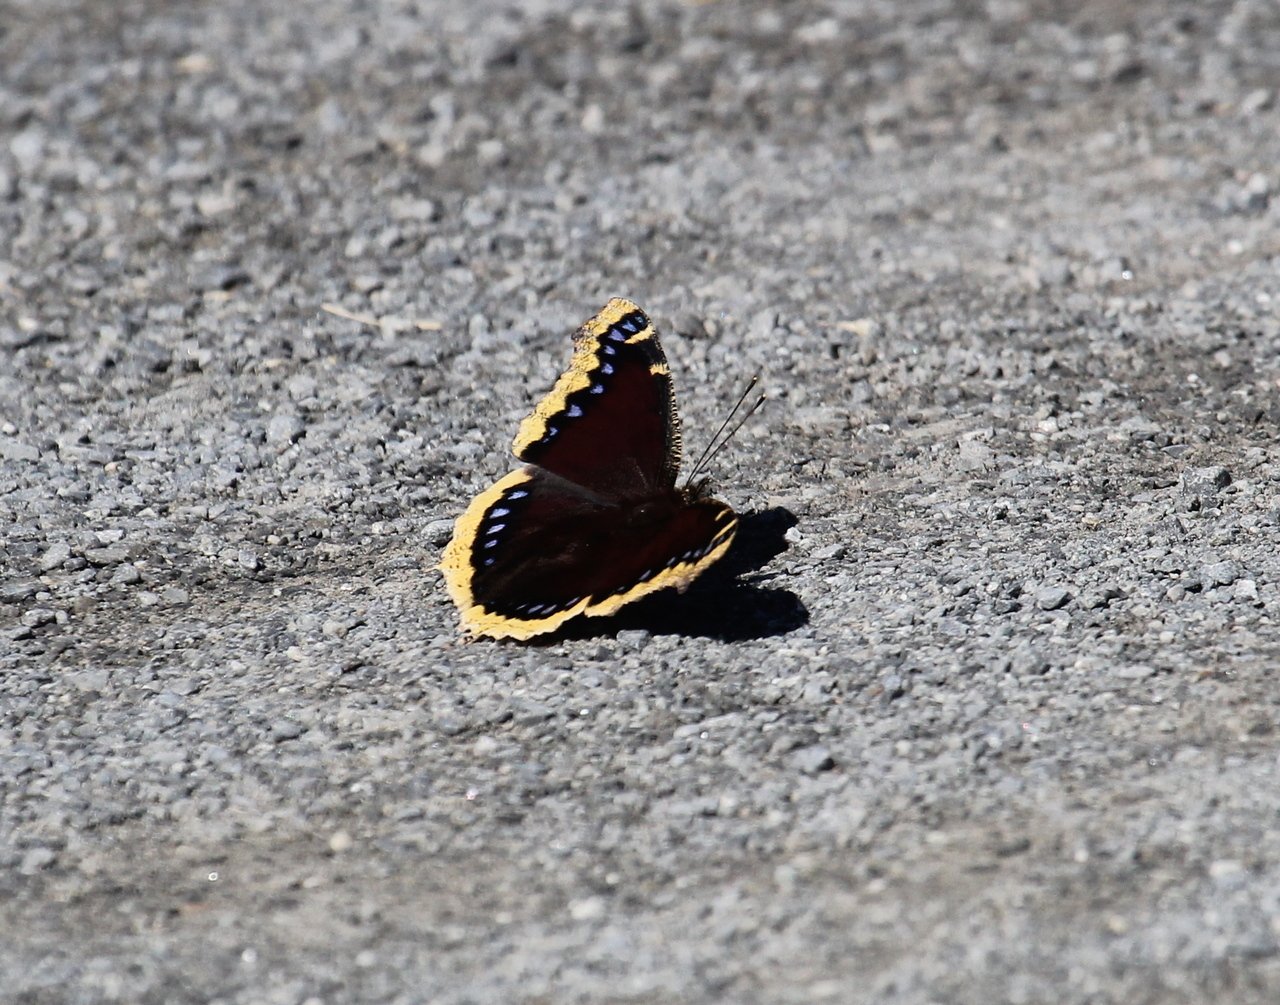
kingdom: Animalia
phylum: Arthropoda
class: Insecta
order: Lepidoptera
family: Nymphalidae
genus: Nymphalis
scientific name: Nymphalis antiopa
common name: Mourning Cloak
